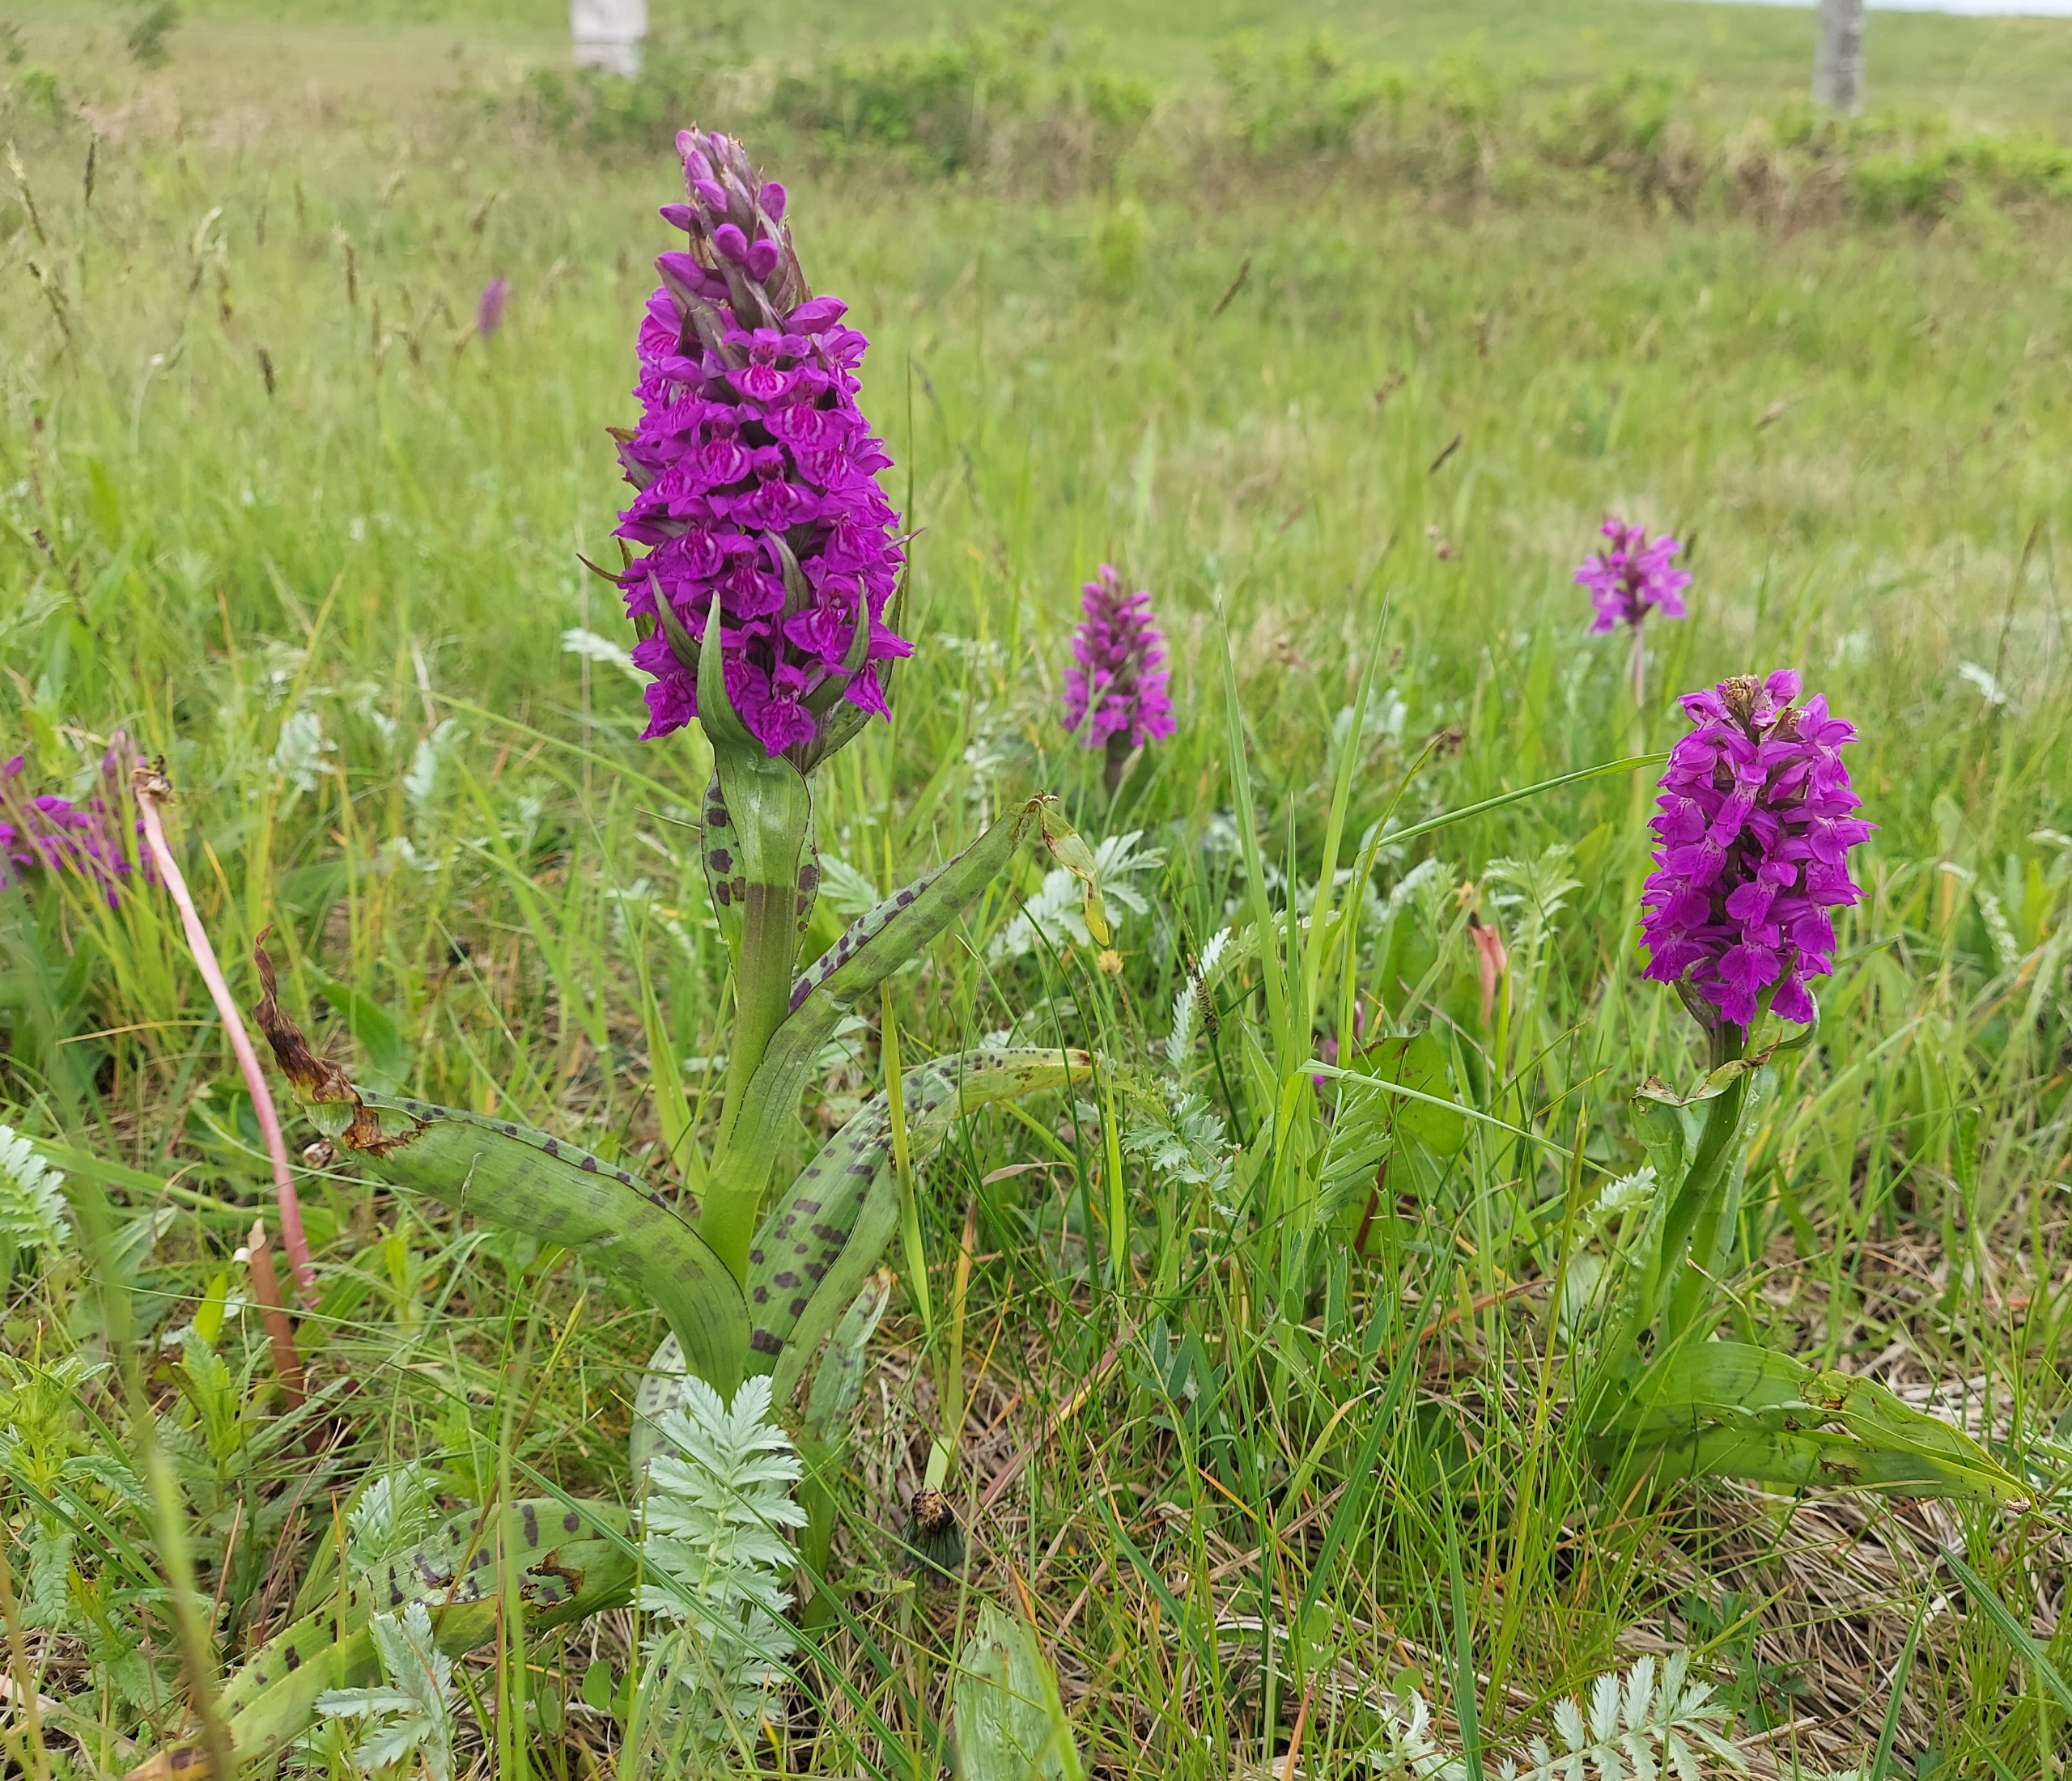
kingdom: Plantae
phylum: Tracheophyta
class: Liliopsida
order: Asparagales
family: Orchidaceae
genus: Dactylorhiza
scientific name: Dactylorhiza majalis
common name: Maj-gøgeurt
